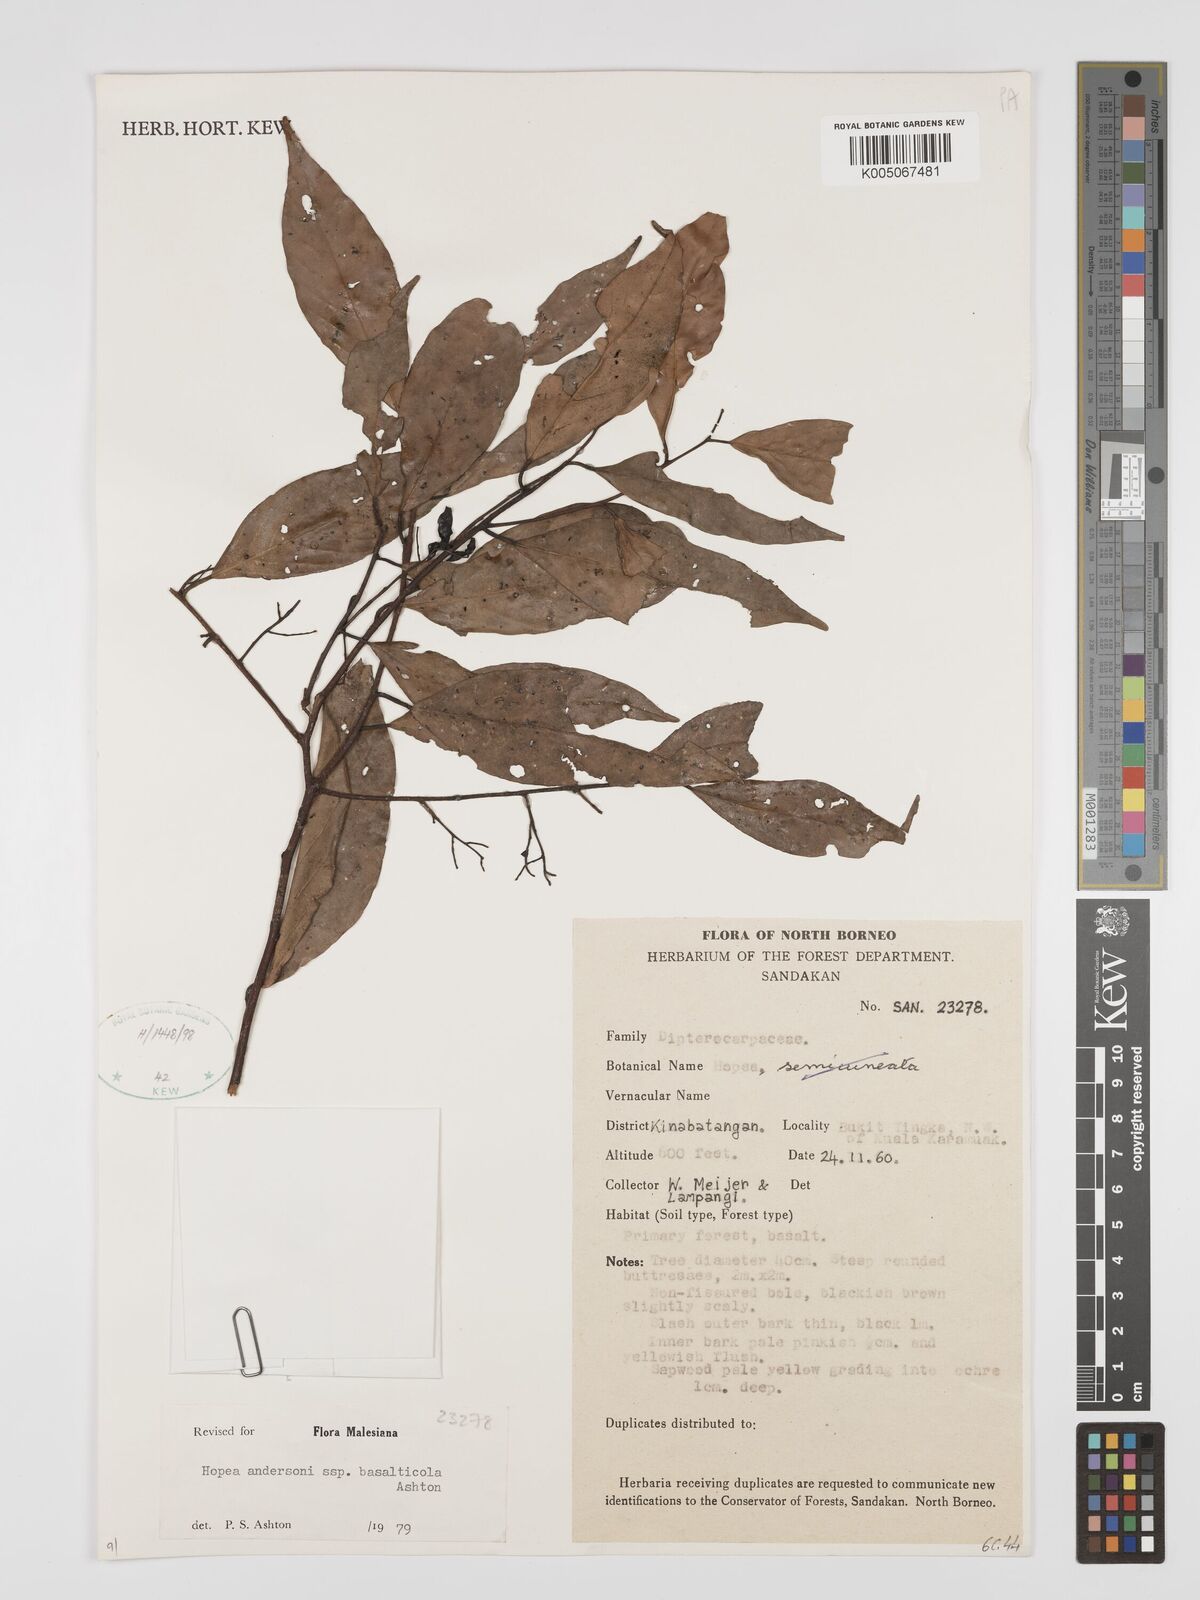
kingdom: Plantae
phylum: Tracheophyta
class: Magnoliopsida
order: Malvales
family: Dipterocarpaceae
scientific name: Dipterocarpaceae
